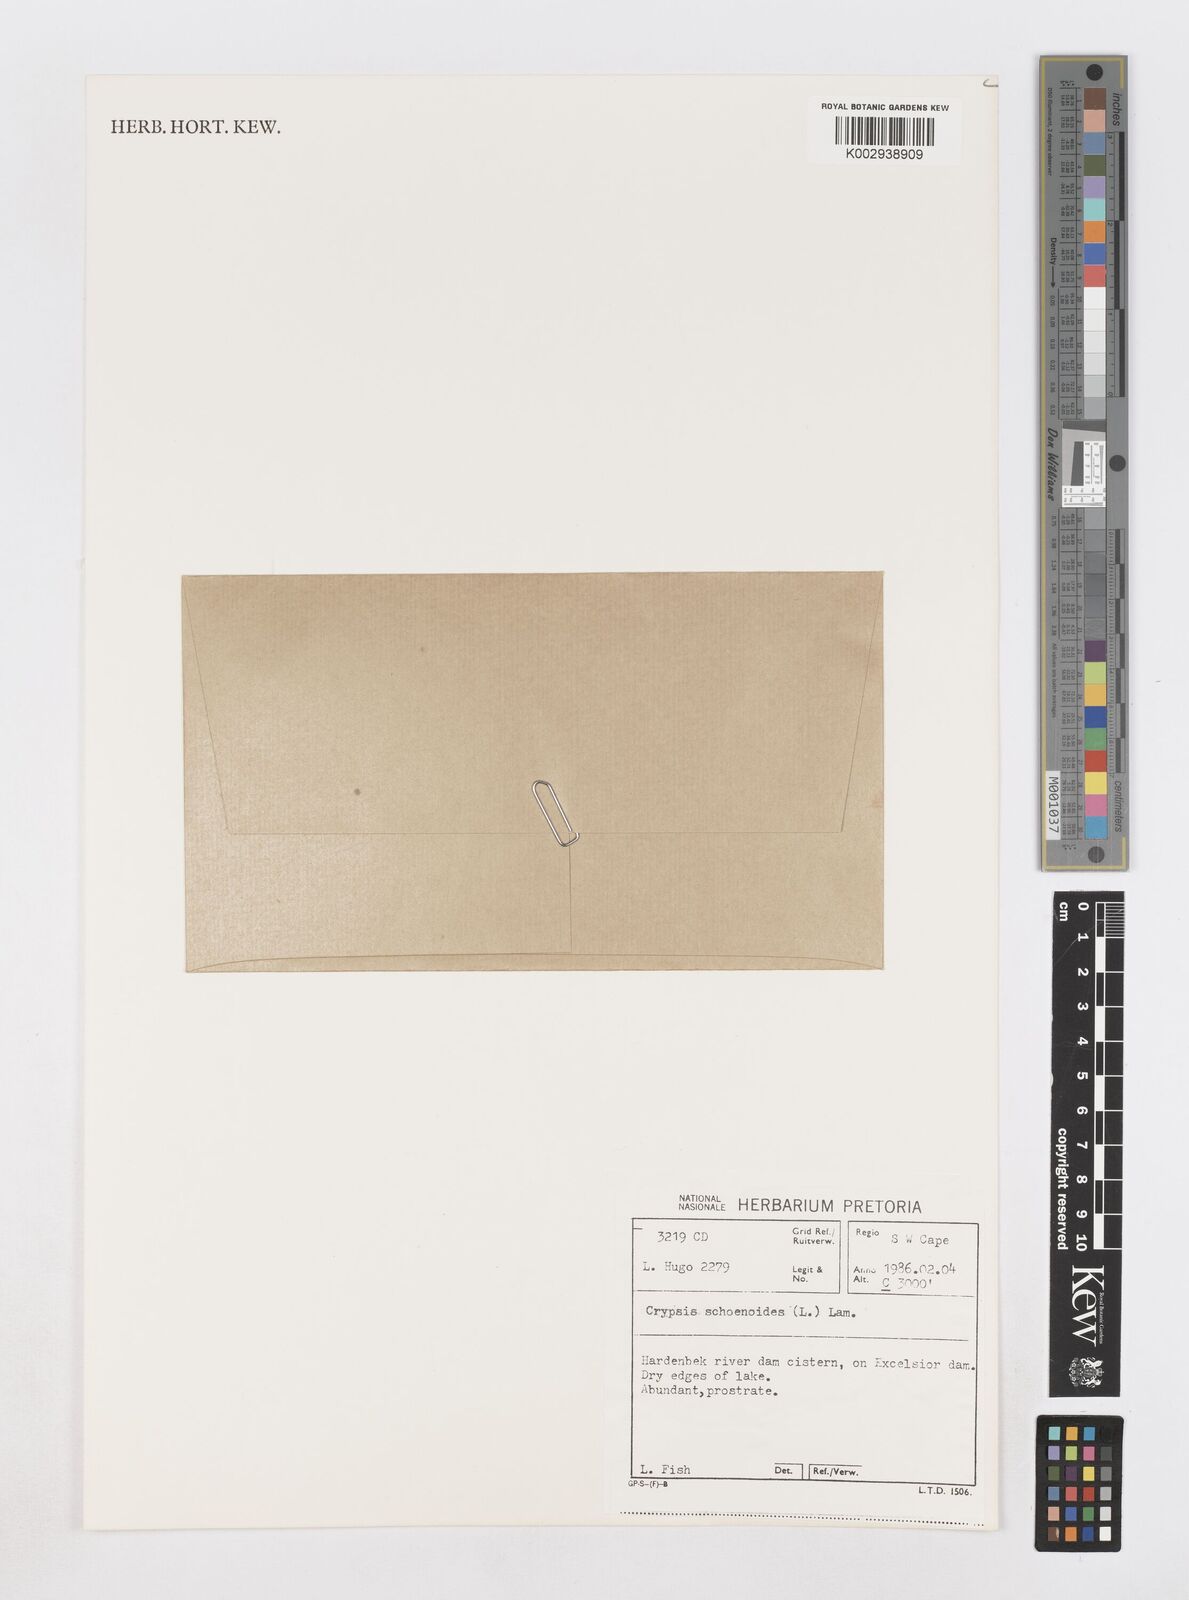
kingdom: Plantae
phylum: Tracheophyta
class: Liliopsida
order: Poales
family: Poaceae
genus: Sporobolus
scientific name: Sporobolus schoenoides
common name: Rush-like timothy
